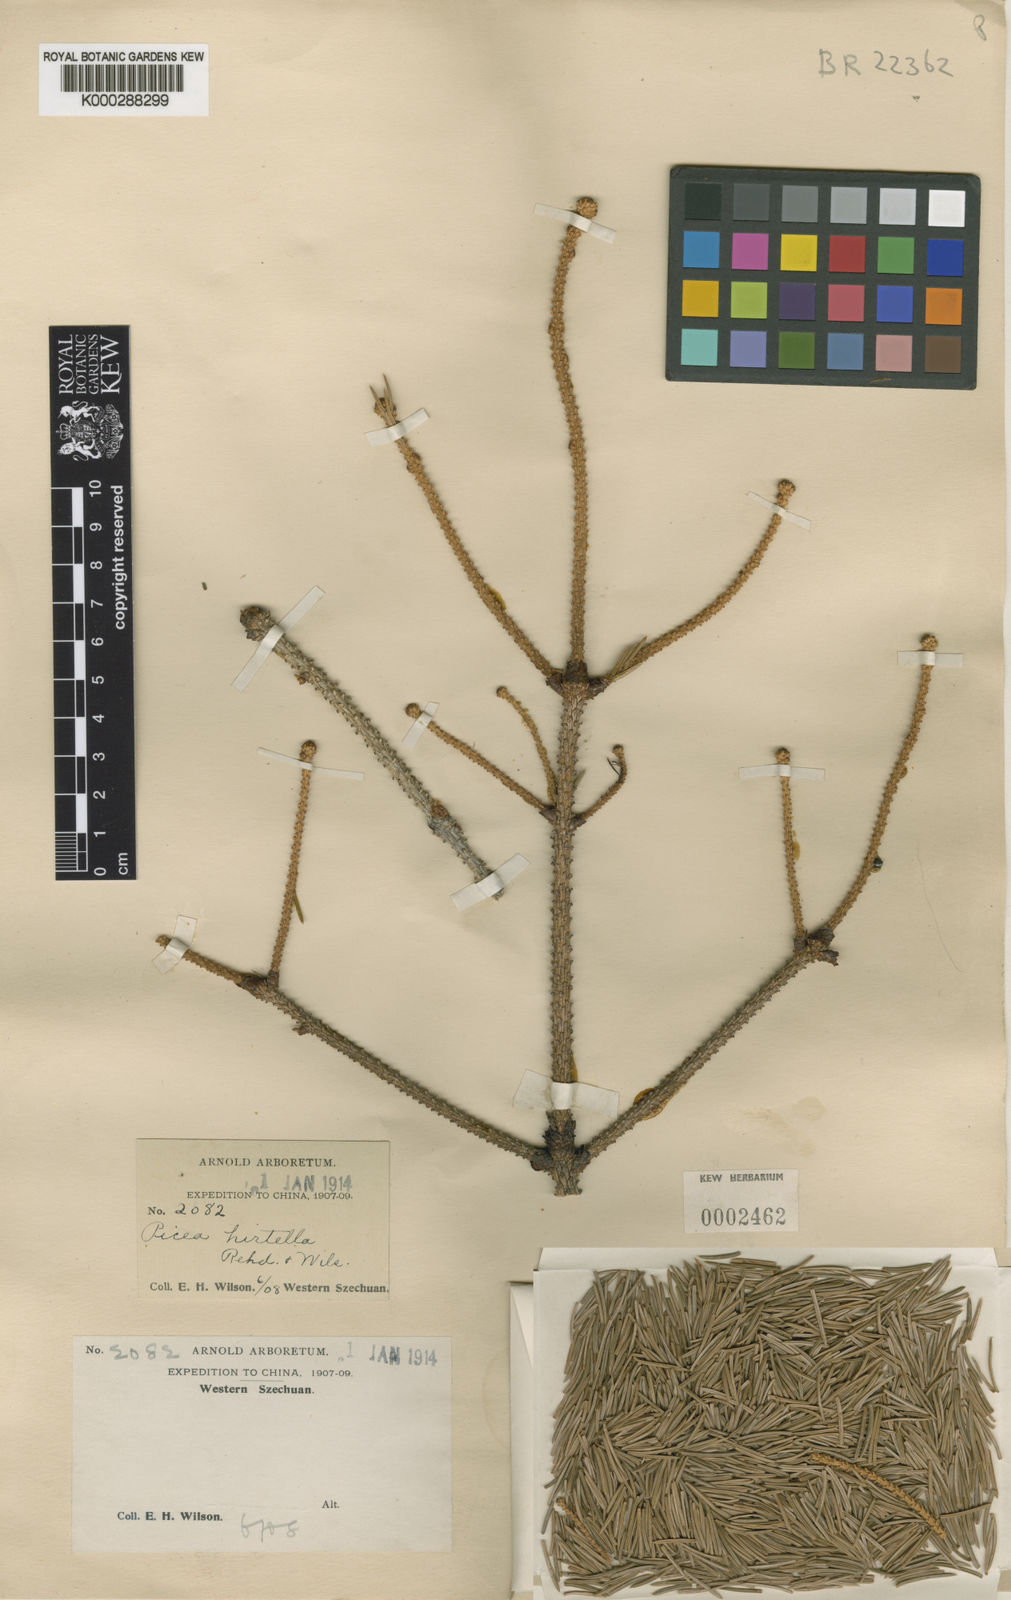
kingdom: Plantae
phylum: Tracheophyta
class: Pinopsida
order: Pinales
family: Pinaceae
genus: Picea
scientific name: Picea likiangensis
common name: Likiang spruce
